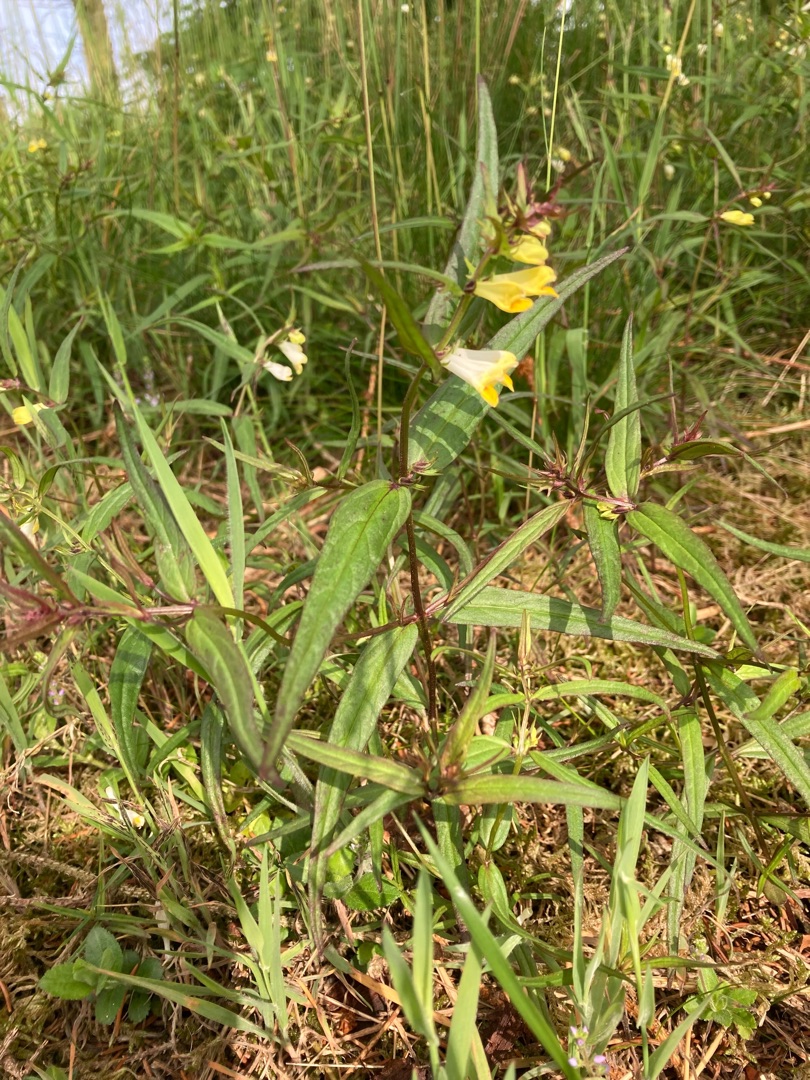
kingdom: Plantae
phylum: Tracheophyta
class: Magnoliopsida
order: Lamiales
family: Orobanchaceae
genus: Melampyrum
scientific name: Melampyrum pratense
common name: Almindelig kohvede
